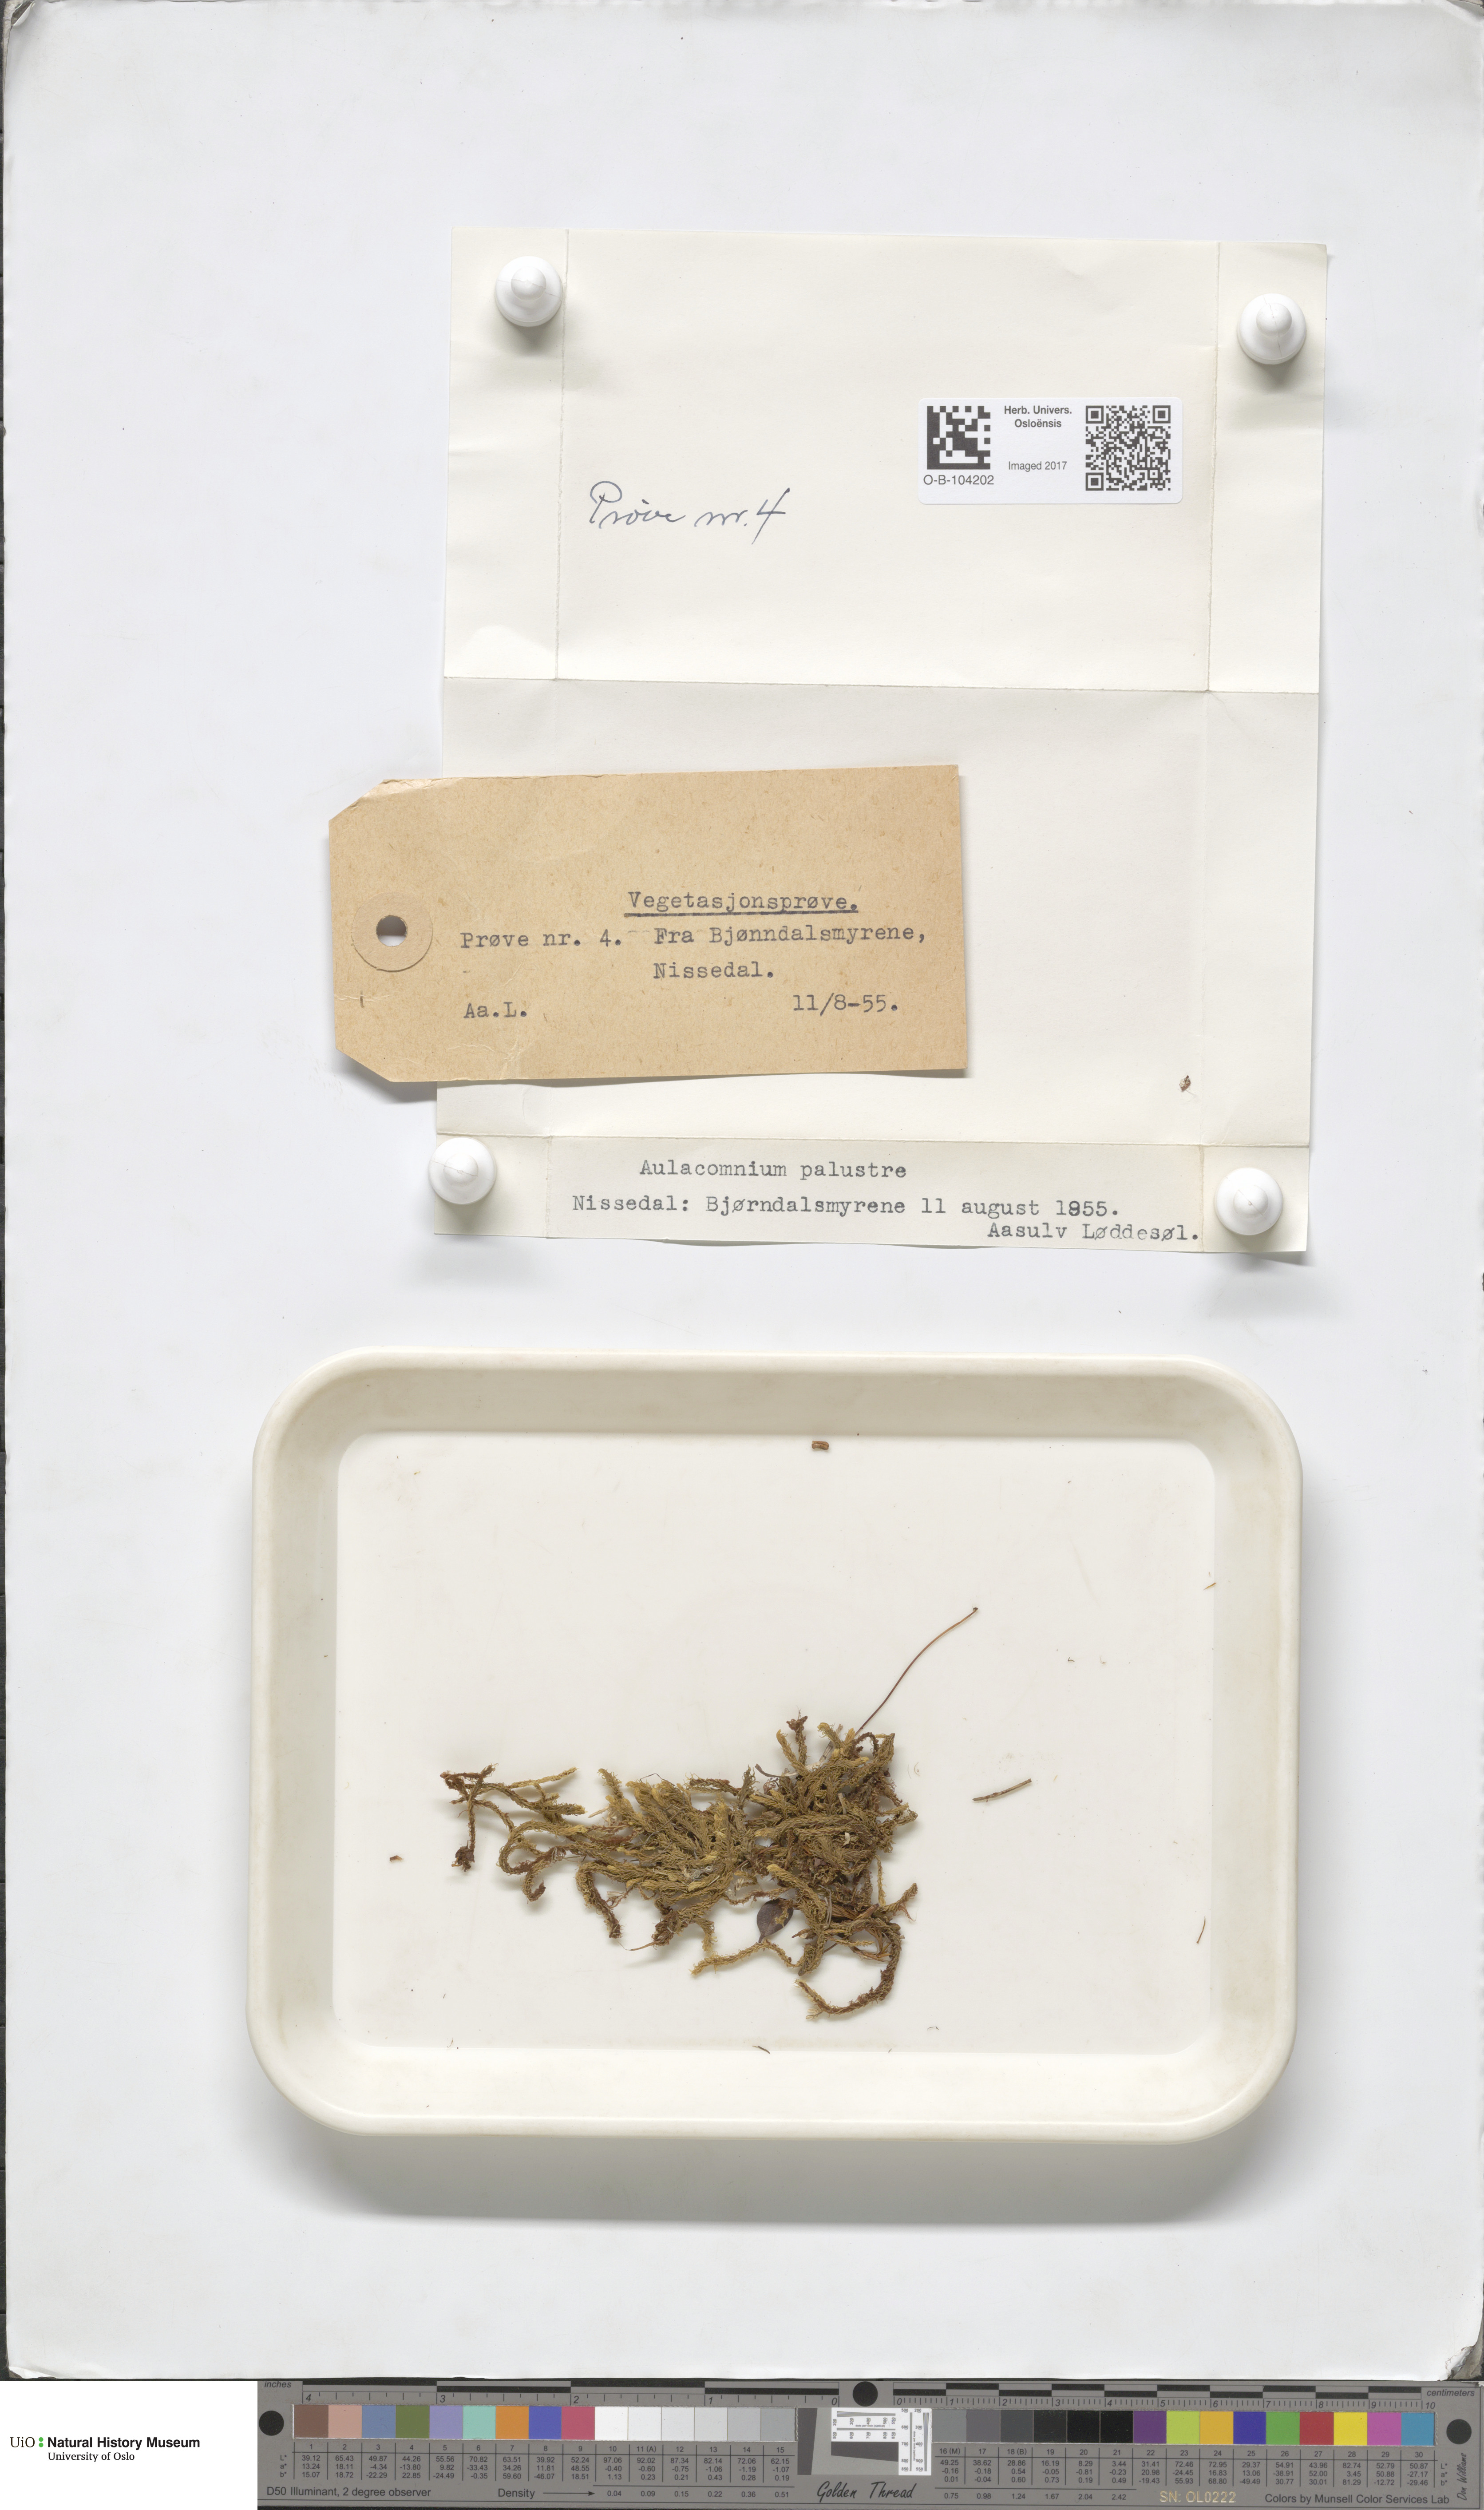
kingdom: Plantae
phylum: Bryophyta
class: Bryopsida
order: Aulacomniales
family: Aulacomniaceae
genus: Aulacomnium
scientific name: Aulacomnium palustre
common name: Bog groove-moss
